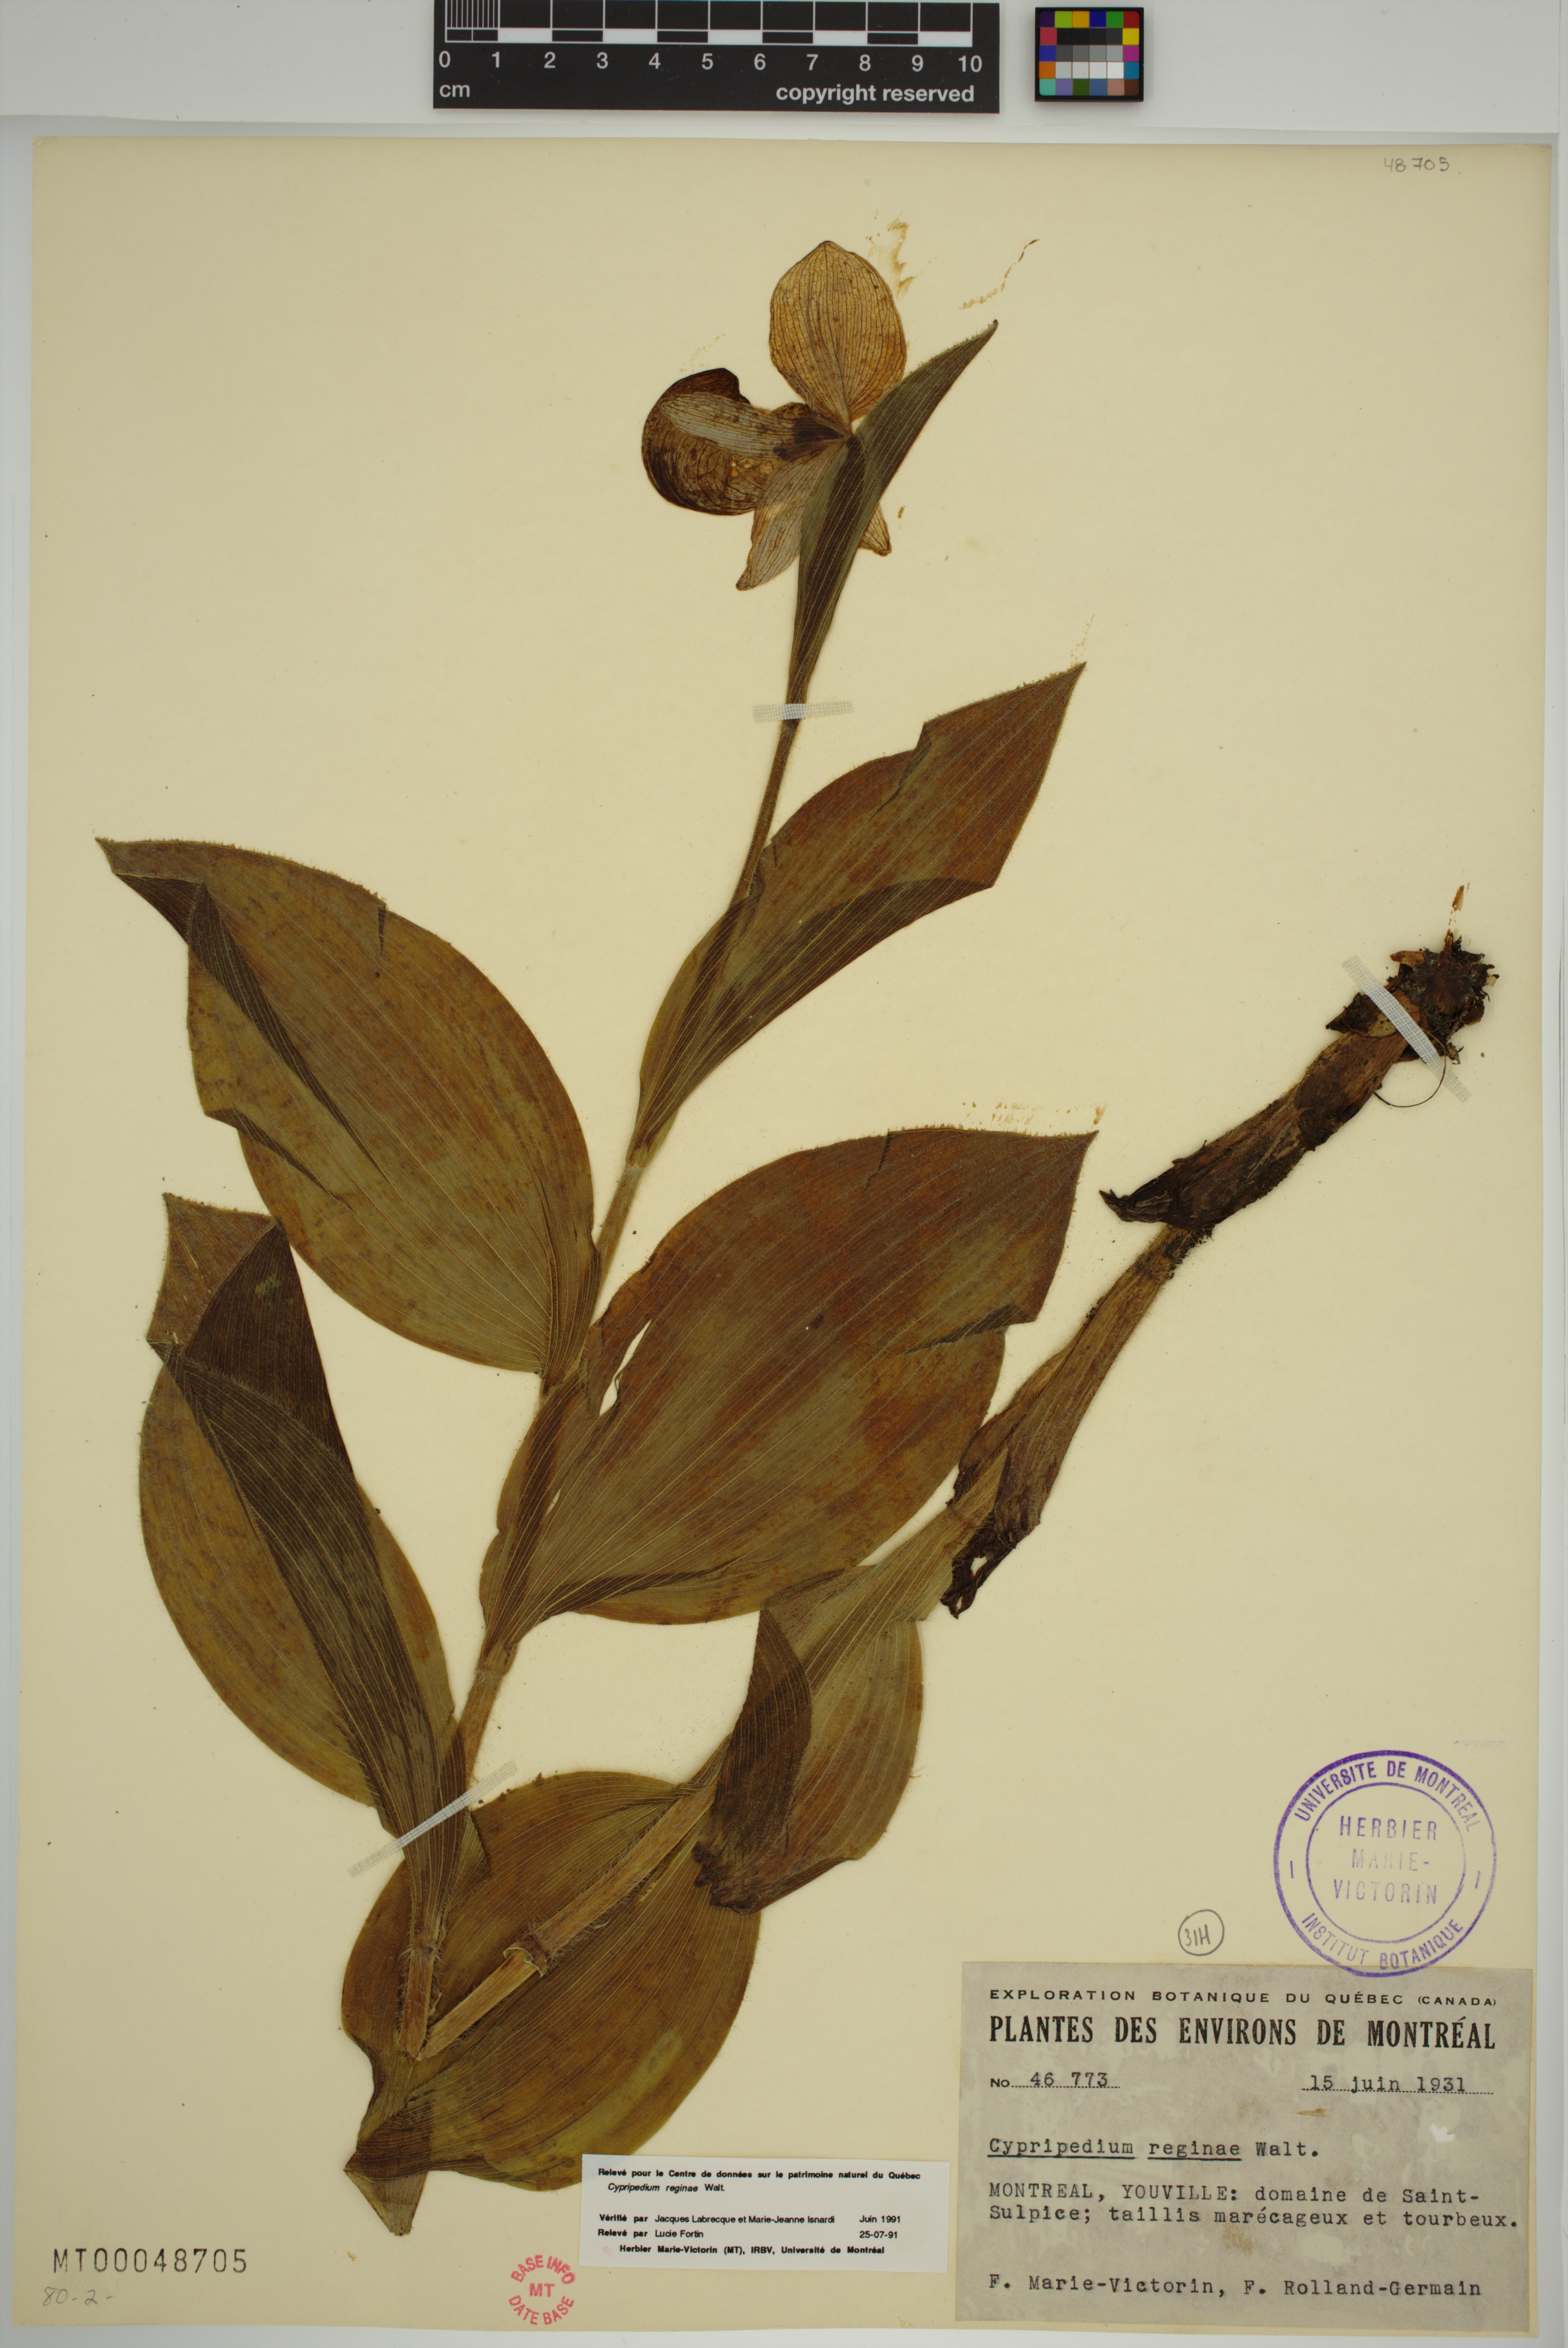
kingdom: Plantae
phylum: Tracheophyta
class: Liliopsida
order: Asparagales
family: Orchidaceae
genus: Cypripedium
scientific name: Cypripedium reginae
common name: Queen lady's-slipper
